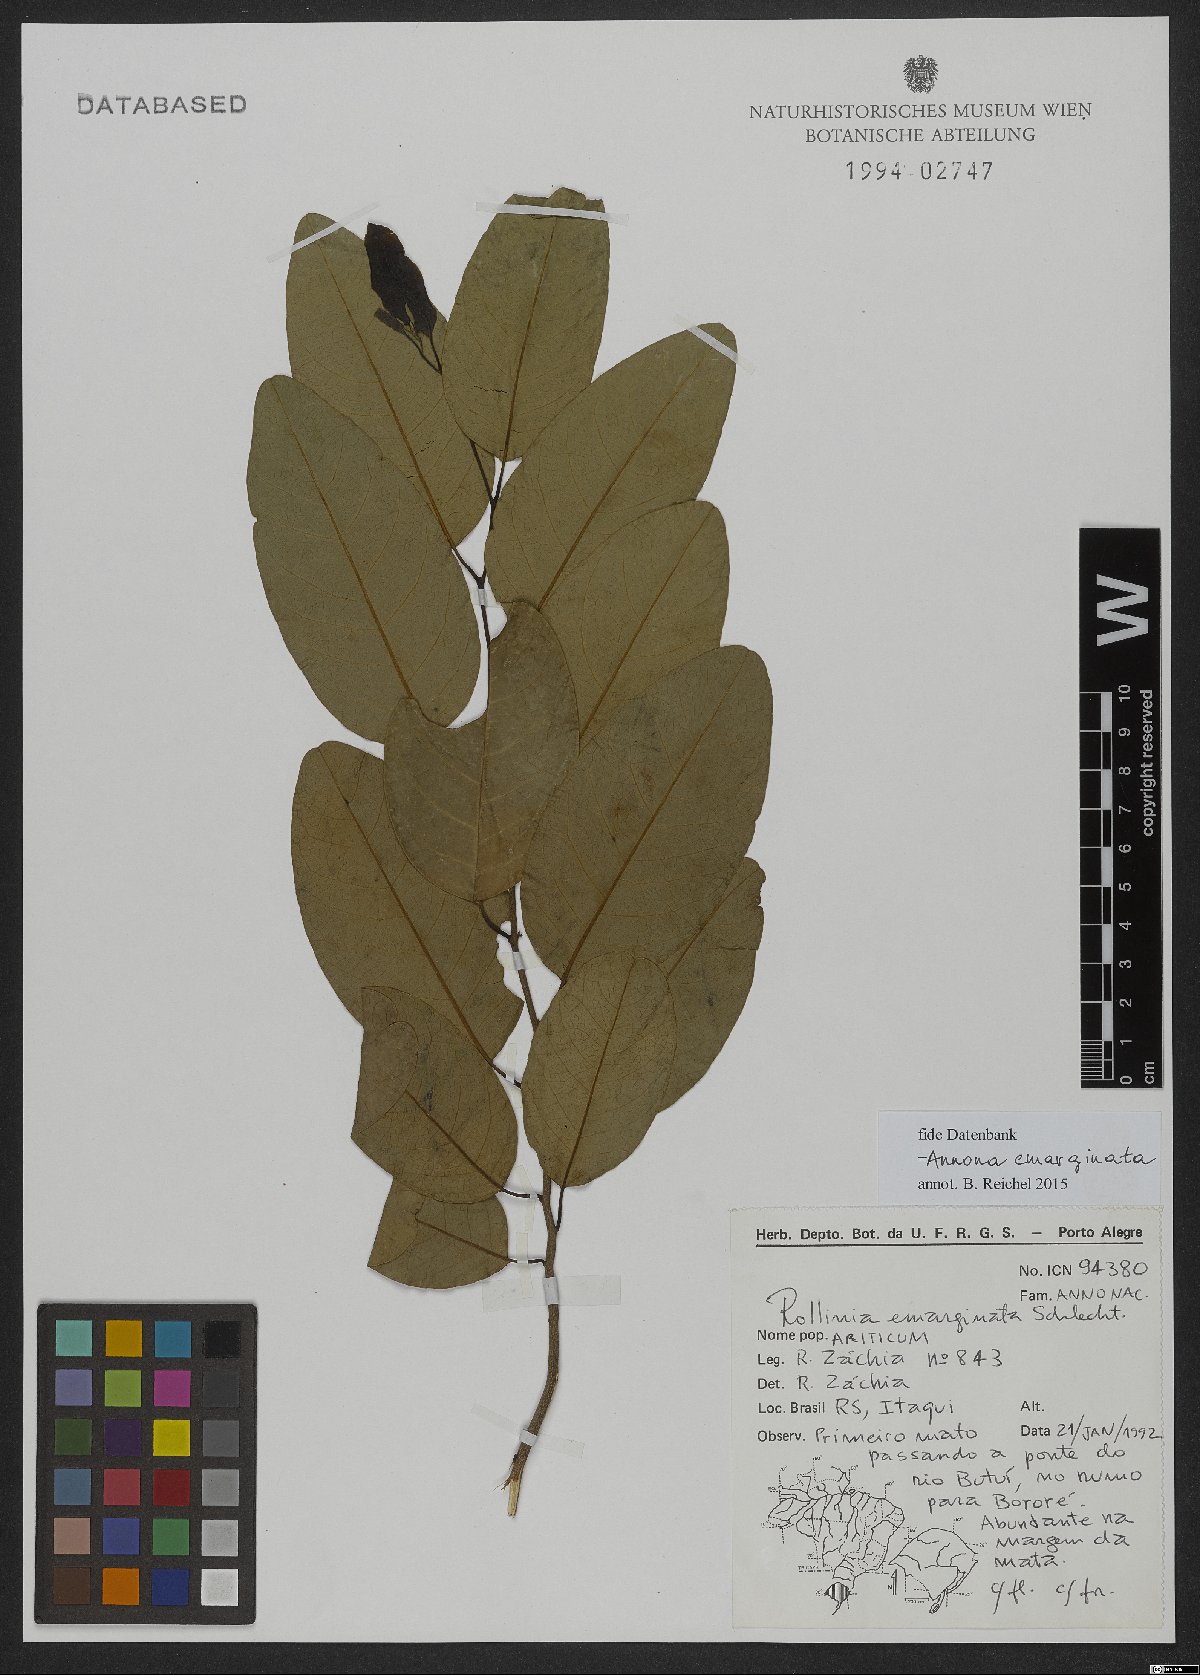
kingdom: Plantae
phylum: Tracheophyta
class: Magnoliopsida
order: Magnoliales
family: Annonaceae
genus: Annona
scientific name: Annona emarginata
